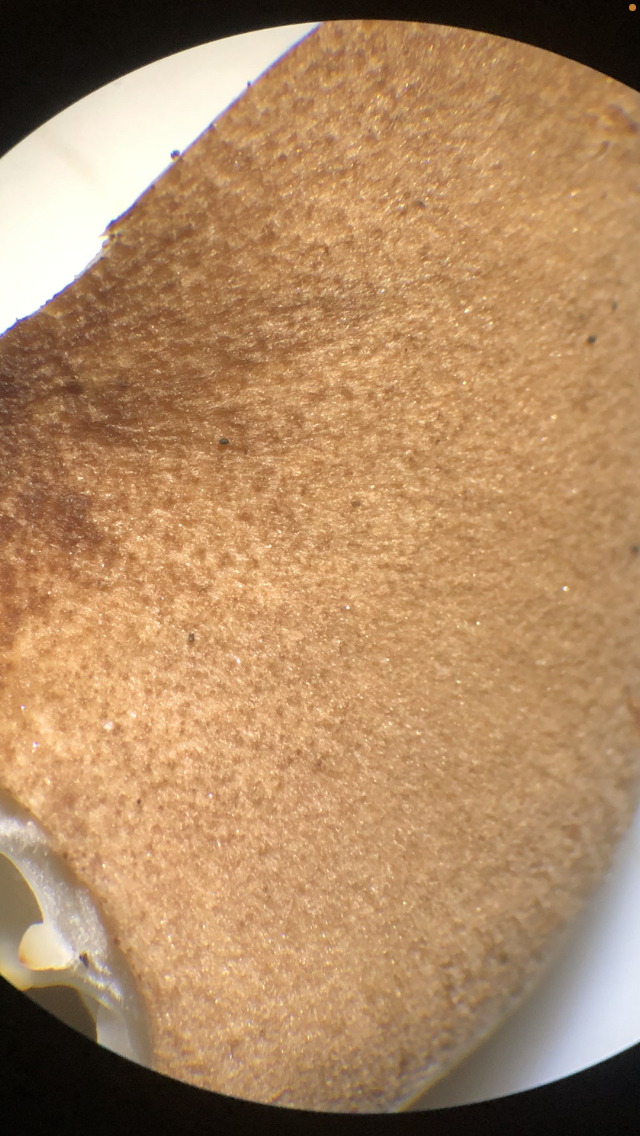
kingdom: Fungi
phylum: Basidiomycota
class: Agaricomycetes
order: Agaricales
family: Tricholomataceae
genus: Infundibulicybe
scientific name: Infundibulicybe squamulosa
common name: småskællet tragthat
